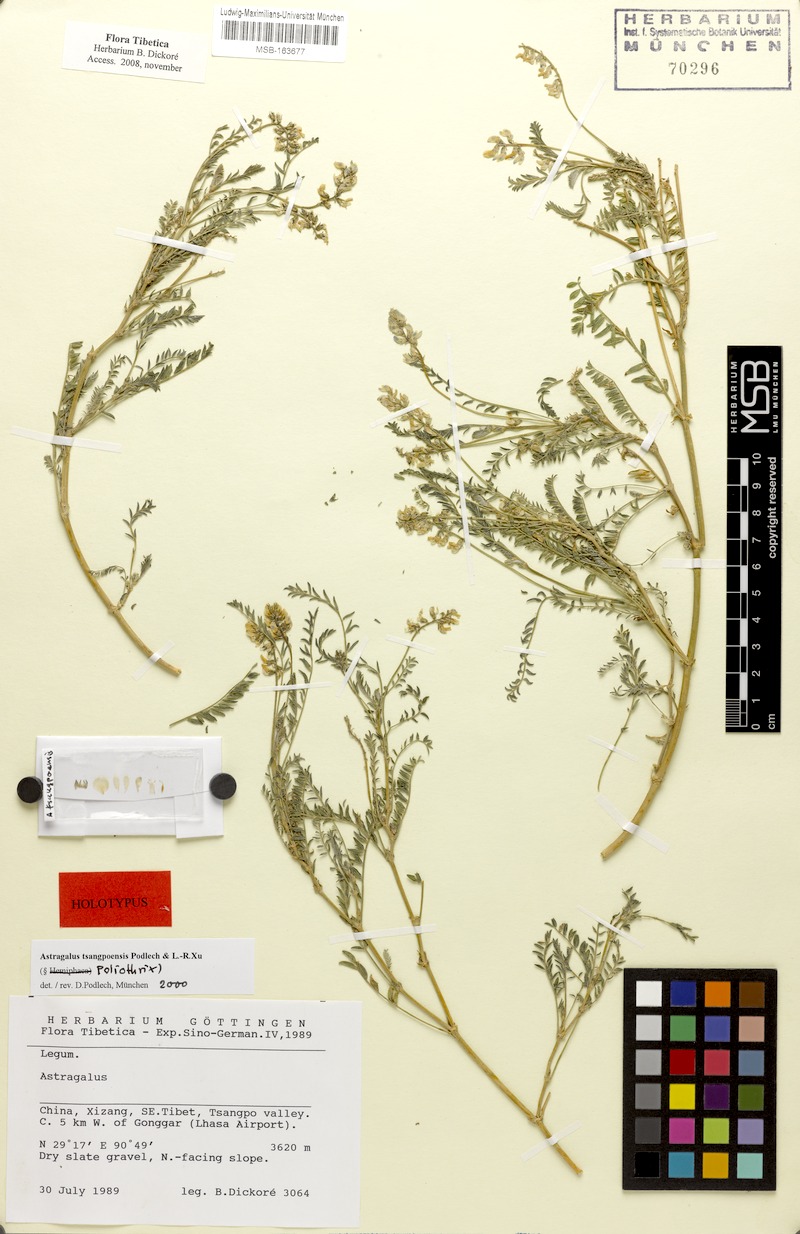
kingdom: Plantae
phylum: Tracheophyta
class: Magnoliopsida
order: Fabales
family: Fabaceae
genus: Astragalus
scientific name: Astragalus tsangpoensis
